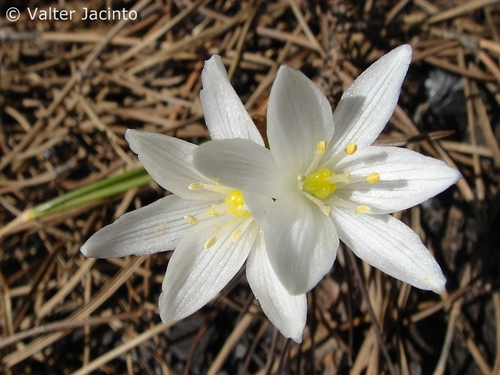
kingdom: Plantae
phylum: Tracheophyta
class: Liliopsida
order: Asparagales
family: Asparagaceae
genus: Ornithogalum
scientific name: Ornithogalum broteroi
